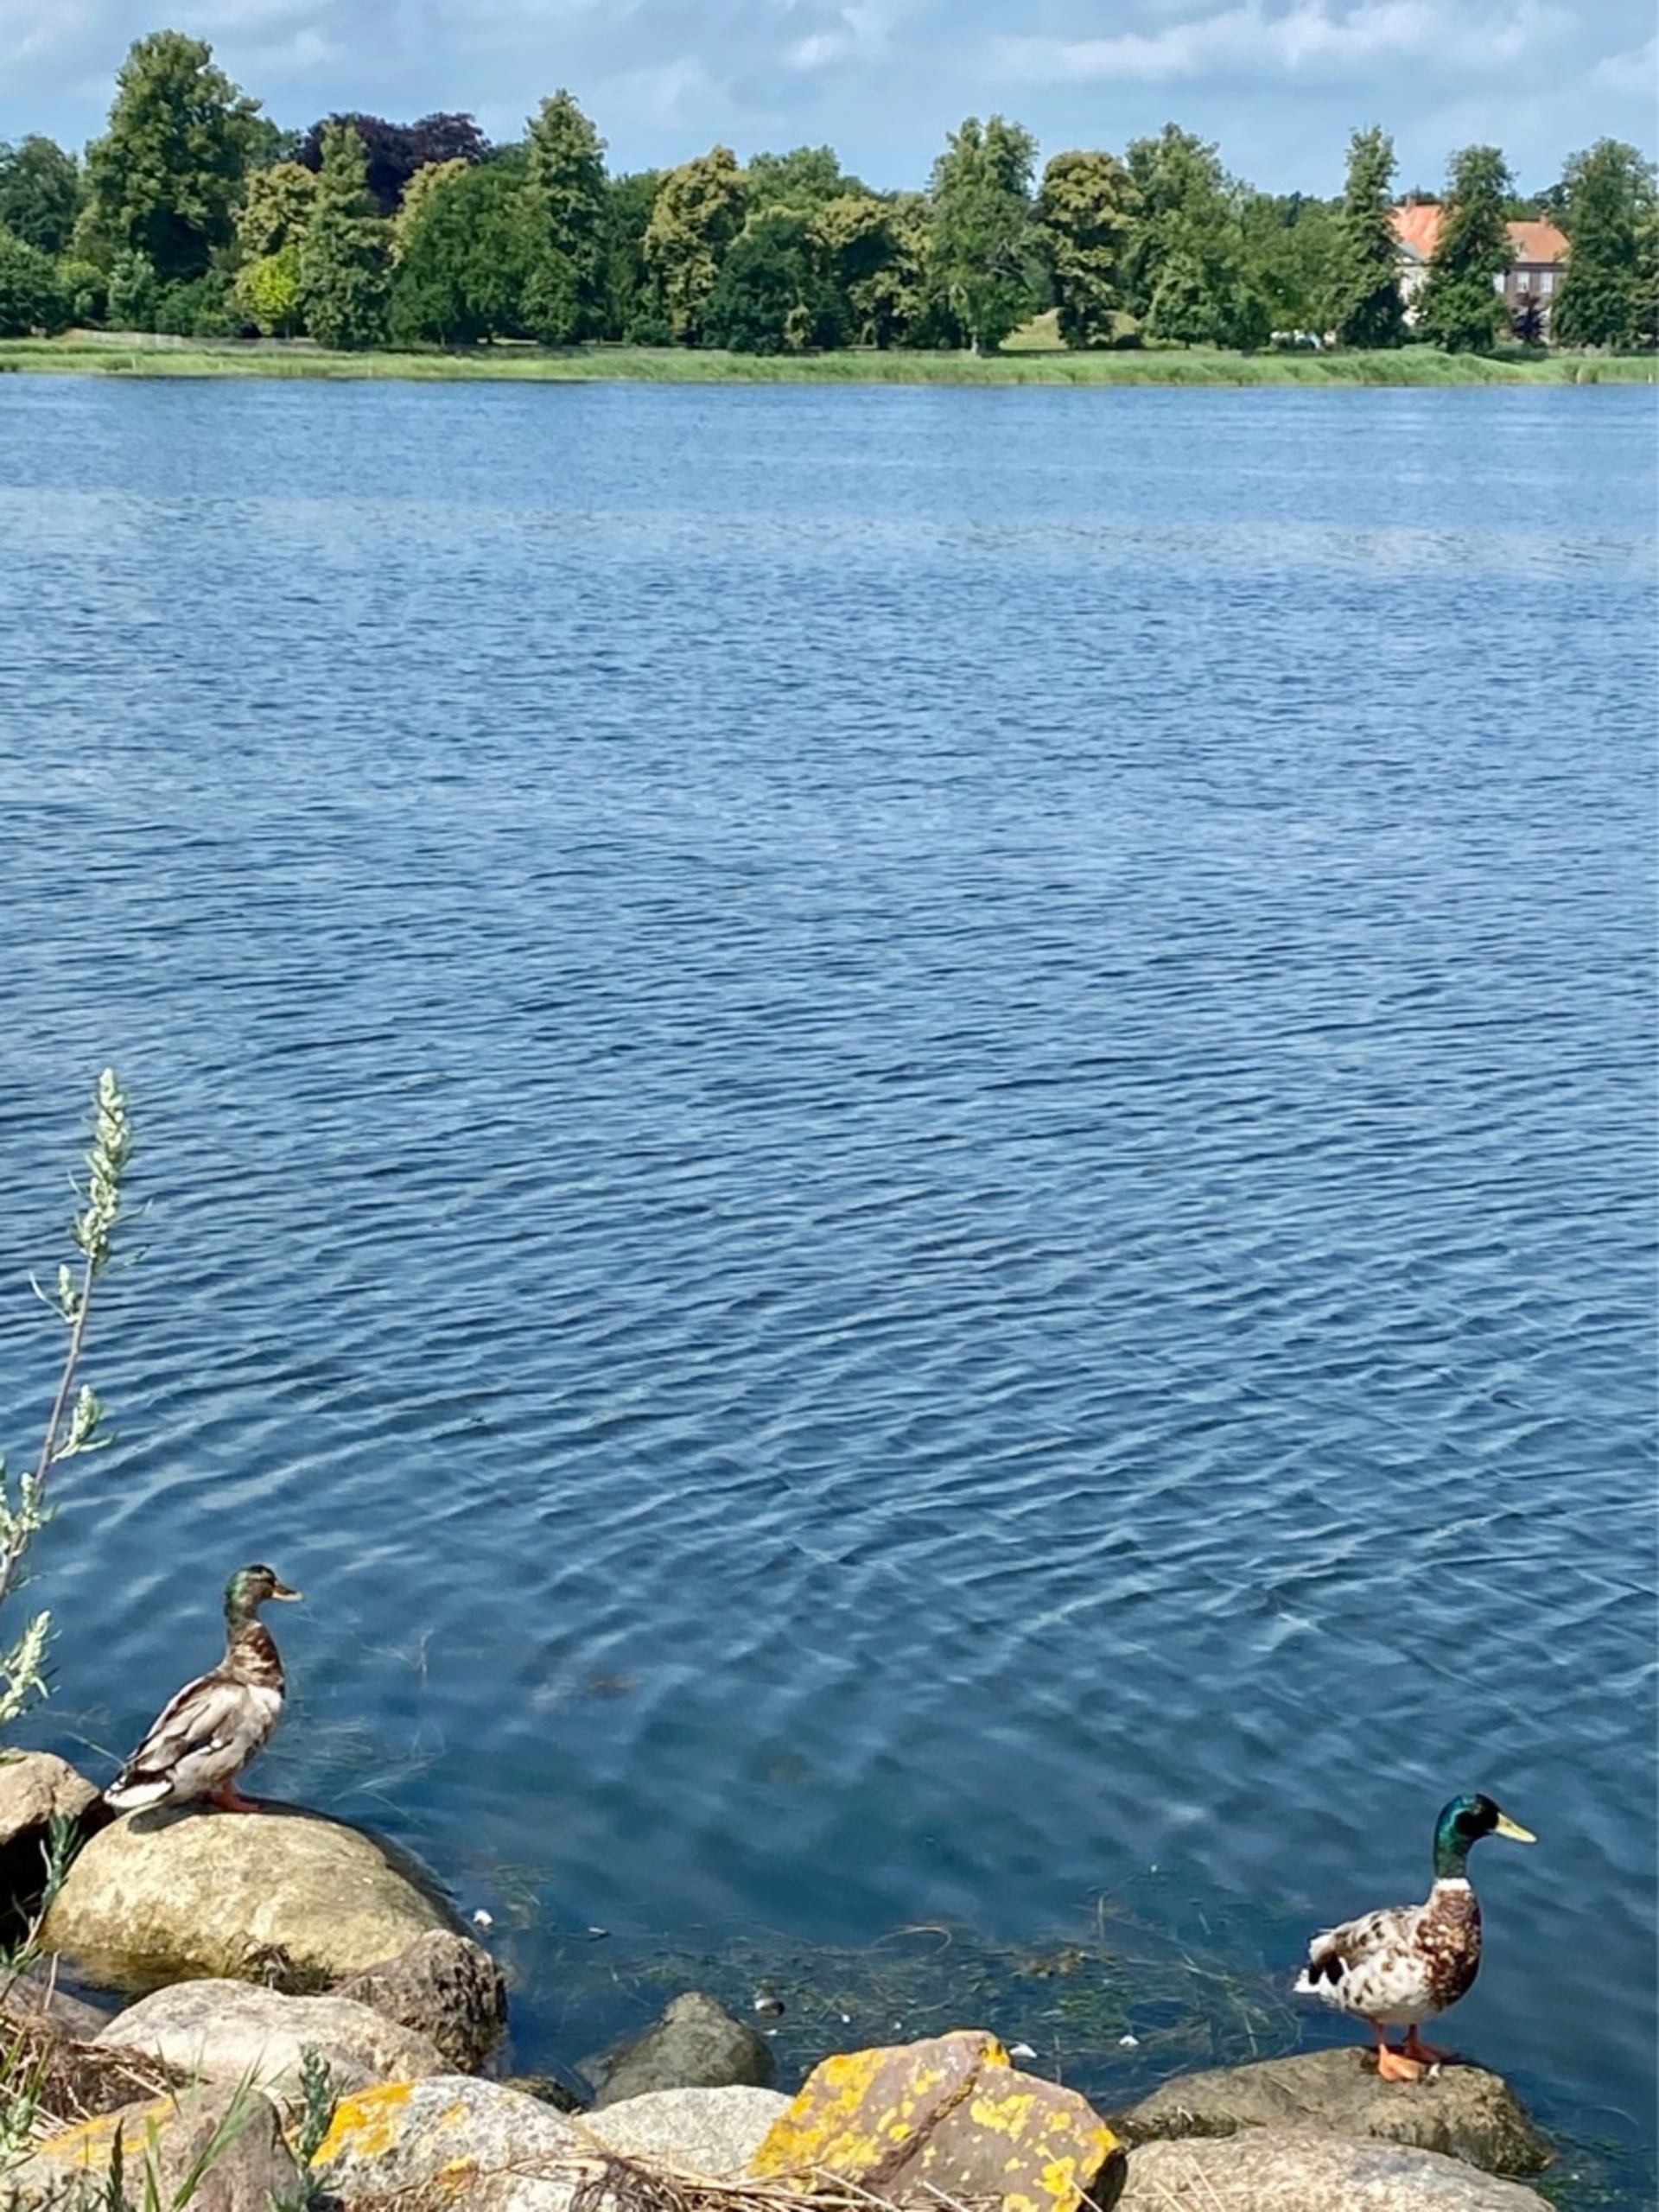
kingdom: Animalia
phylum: Chordata
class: Aves
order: Anseriformes
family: Anatidae
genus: Anas
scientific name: Anas platyrhynchos
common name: Gråand
